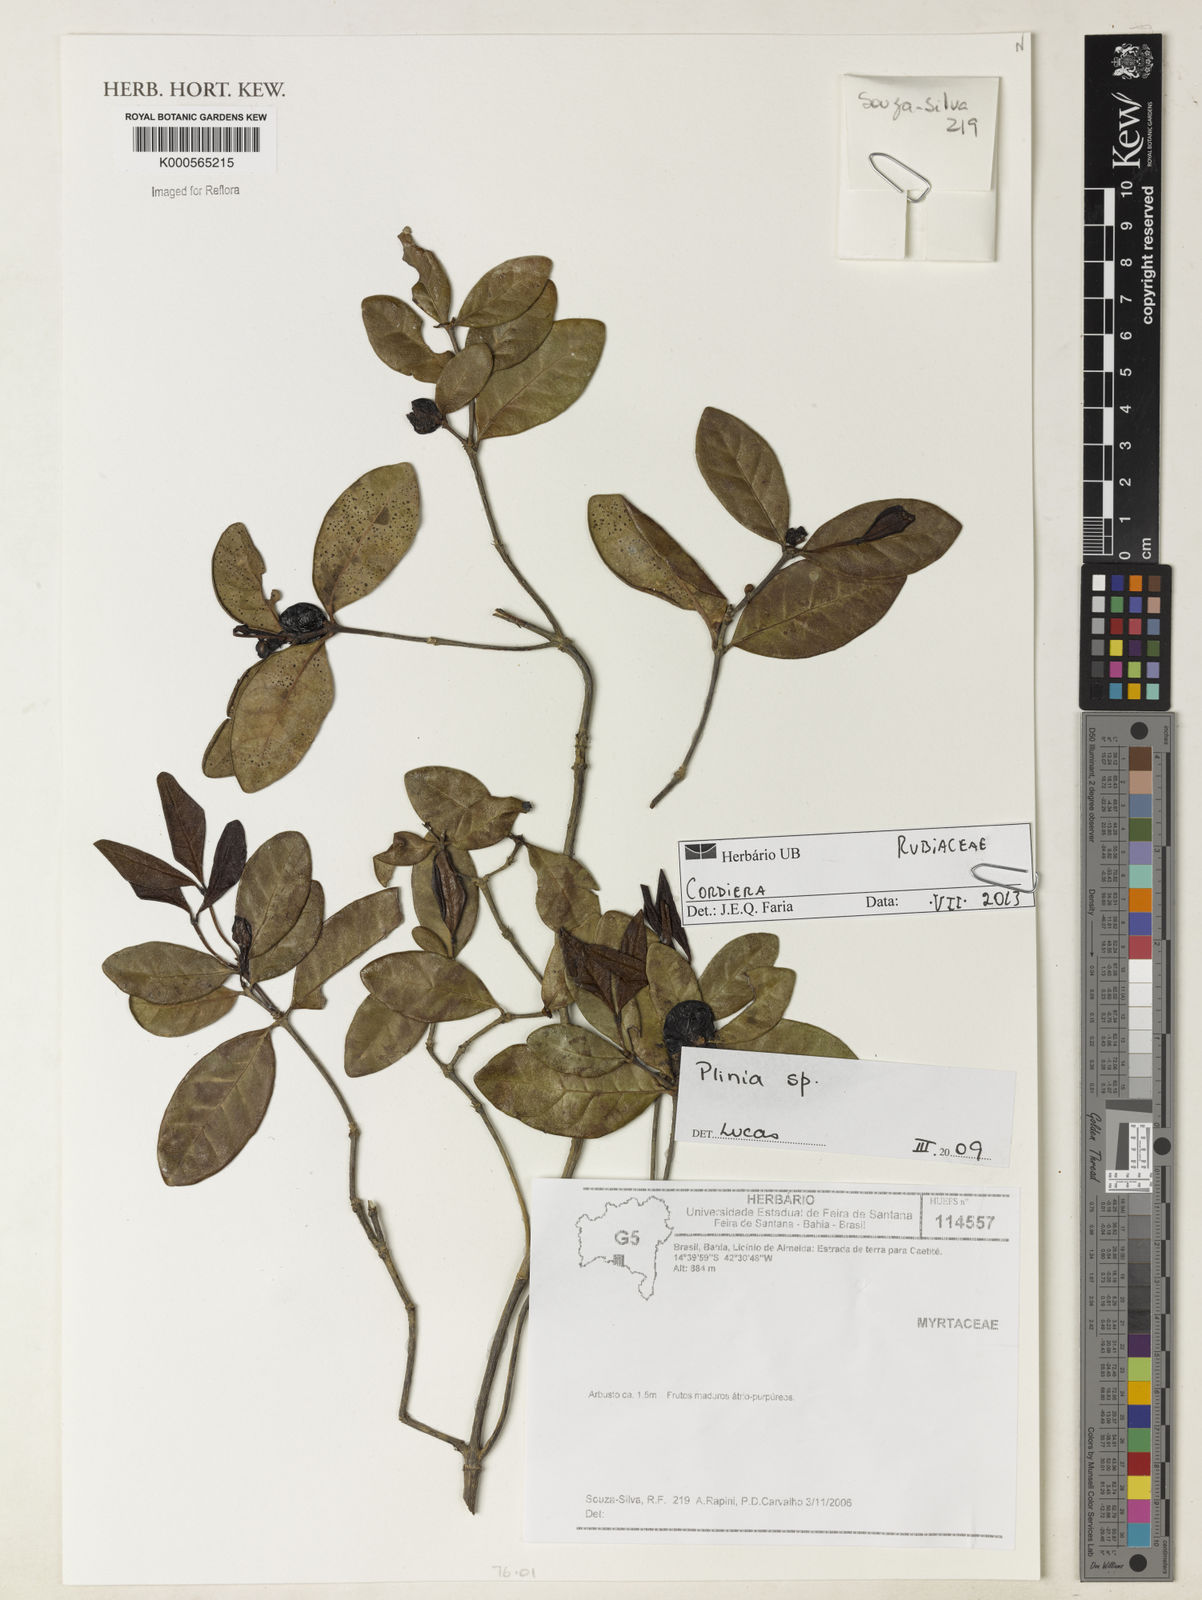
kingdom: Plantae
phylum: Tracheophyta
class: Magnoliopsida
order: Gentianales
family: Rubiaceae
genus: Cordiera
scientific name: Cordiera
